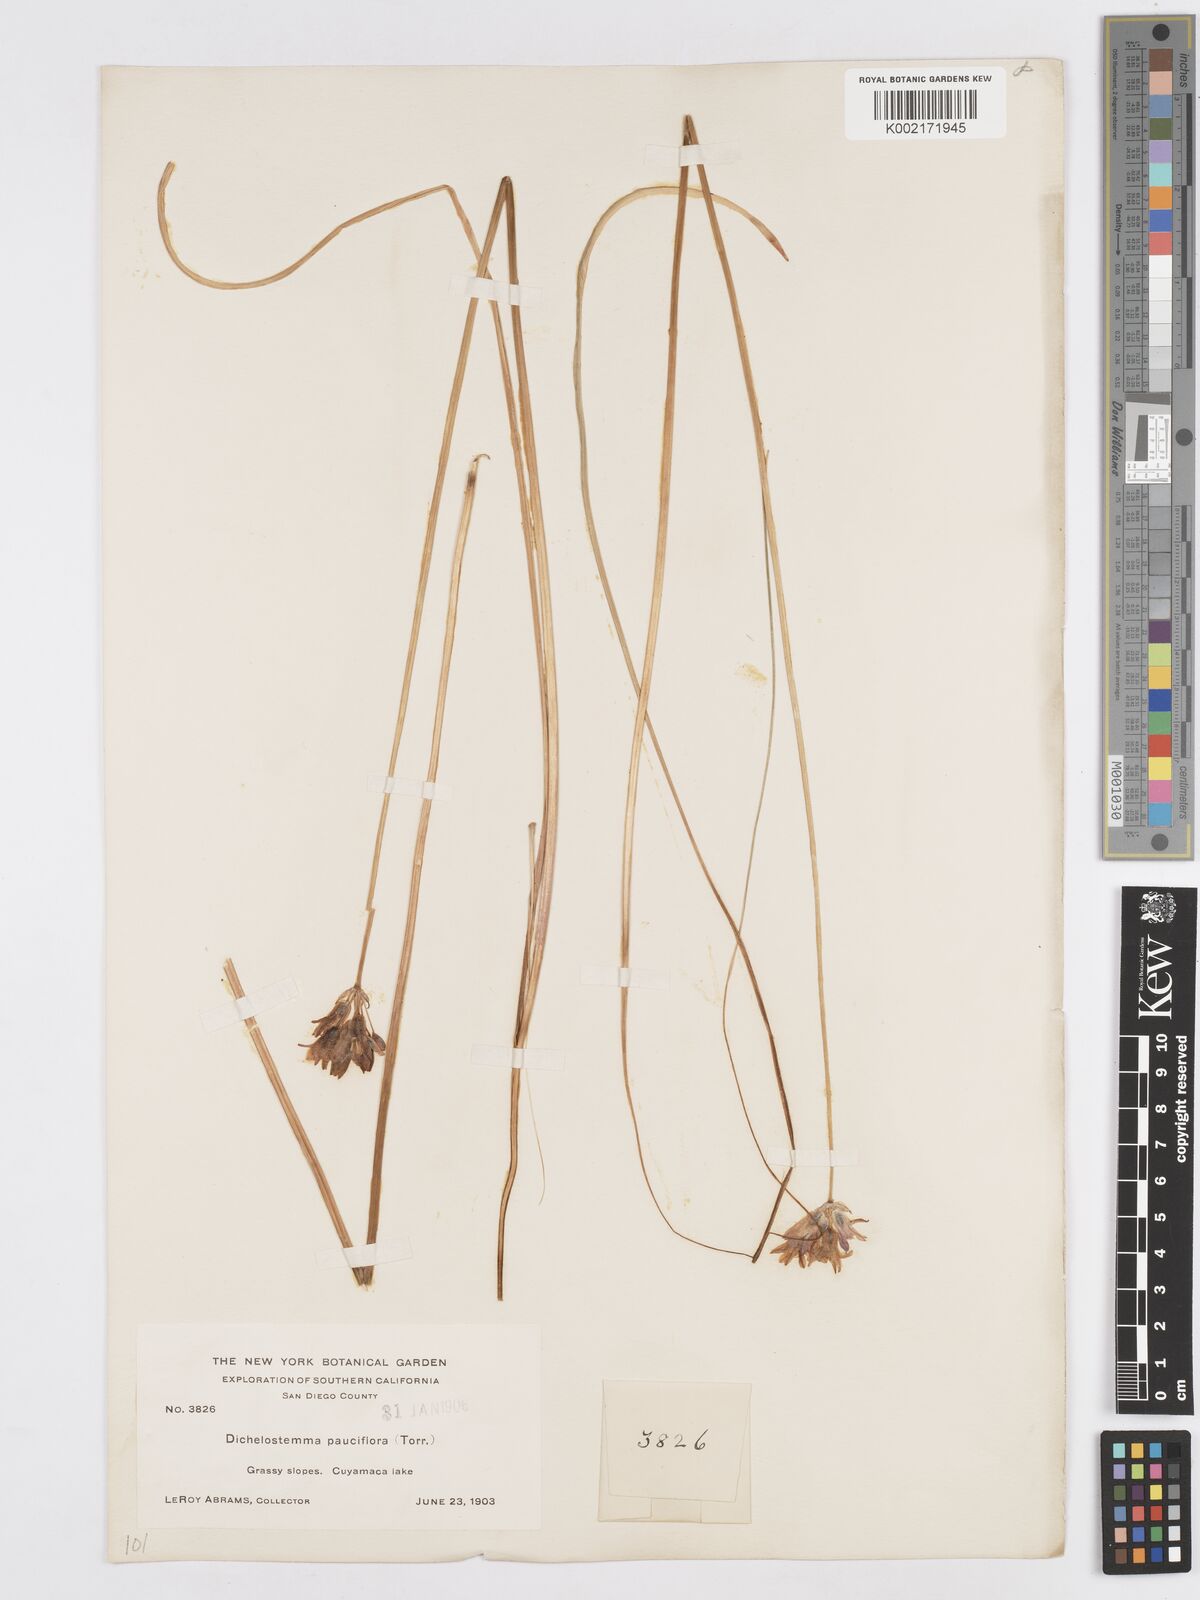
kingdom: Plantae
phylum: Tracheophyta
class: Liliopsida
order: Asparagales
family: Asparagaceae
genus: Dichelostemma
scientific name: Dichelostemma congestum
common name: Fork-tooth ookow
